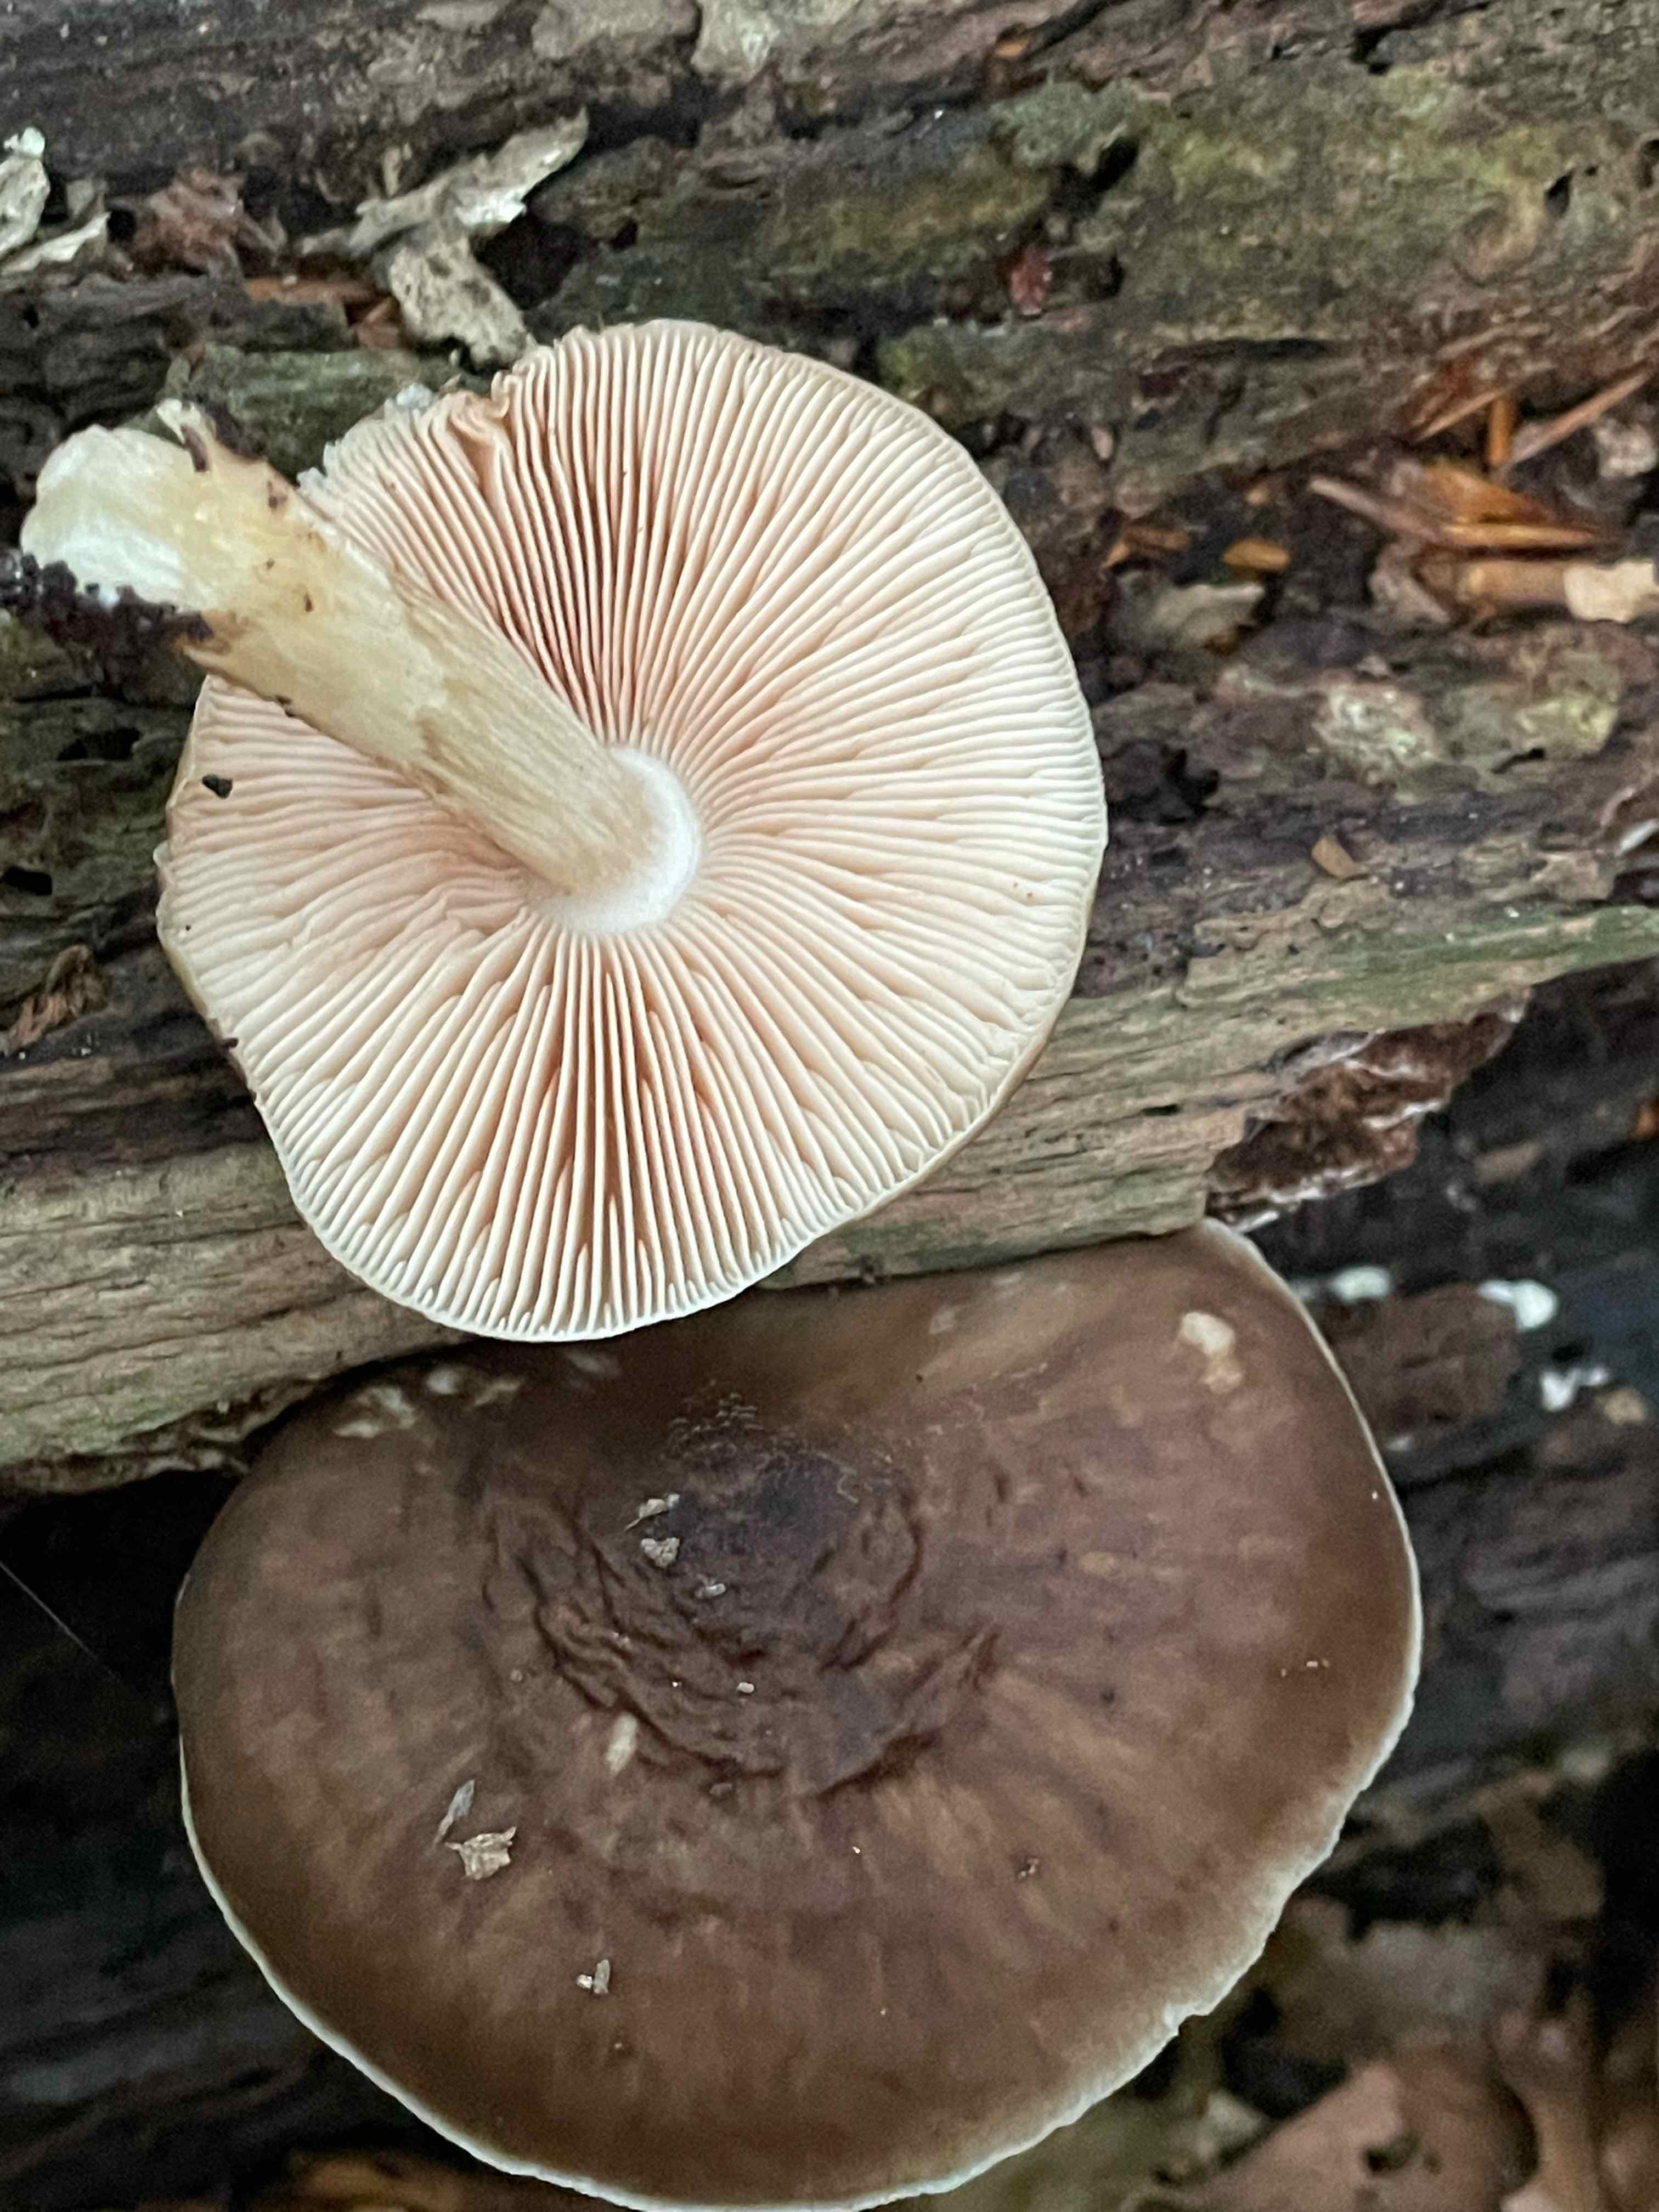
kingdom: Fungi
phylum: Basidiomycota
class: Agaricomycetes
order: Agaricales
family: Pluteaceae
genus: Pluteus
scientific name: Pluteus cervinus
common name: sodfarvet skærmhat
